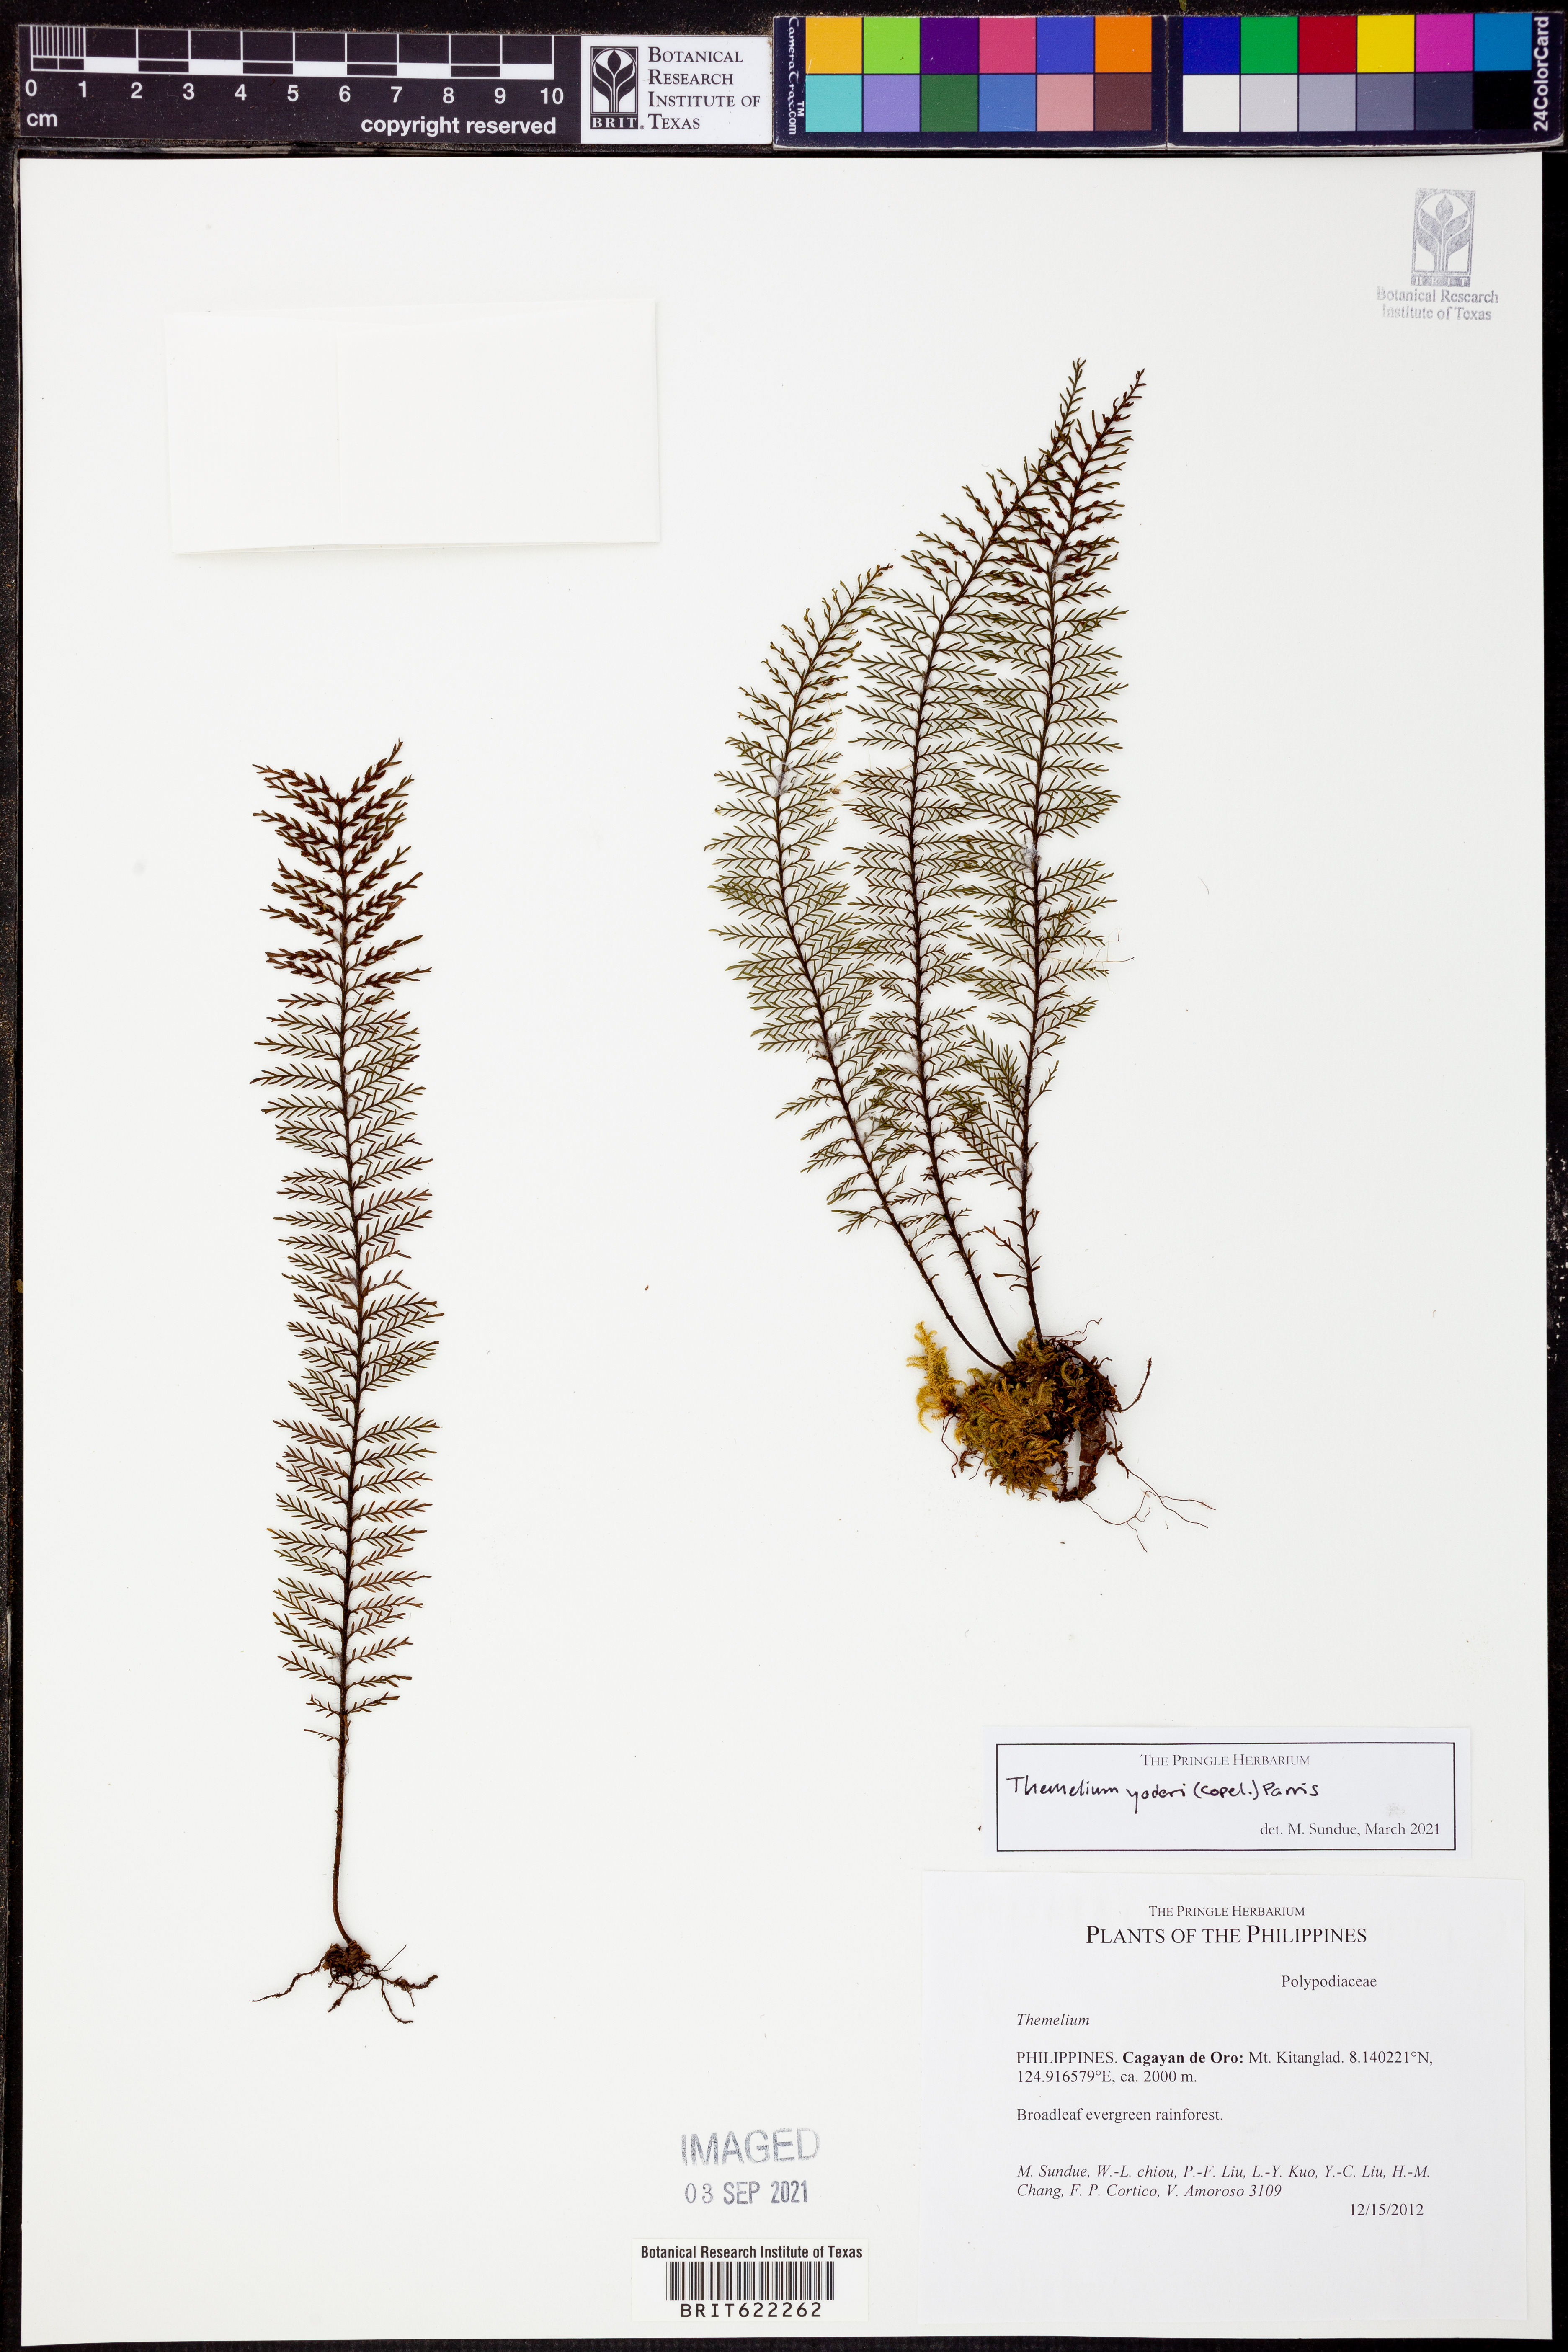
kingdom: Plantae
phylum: Tracheophyta
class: Polypodiopsida
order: Polypodiales
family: Polypodiaceae
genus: Oreogrammitis
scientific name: Oreogrammitis yoderi
